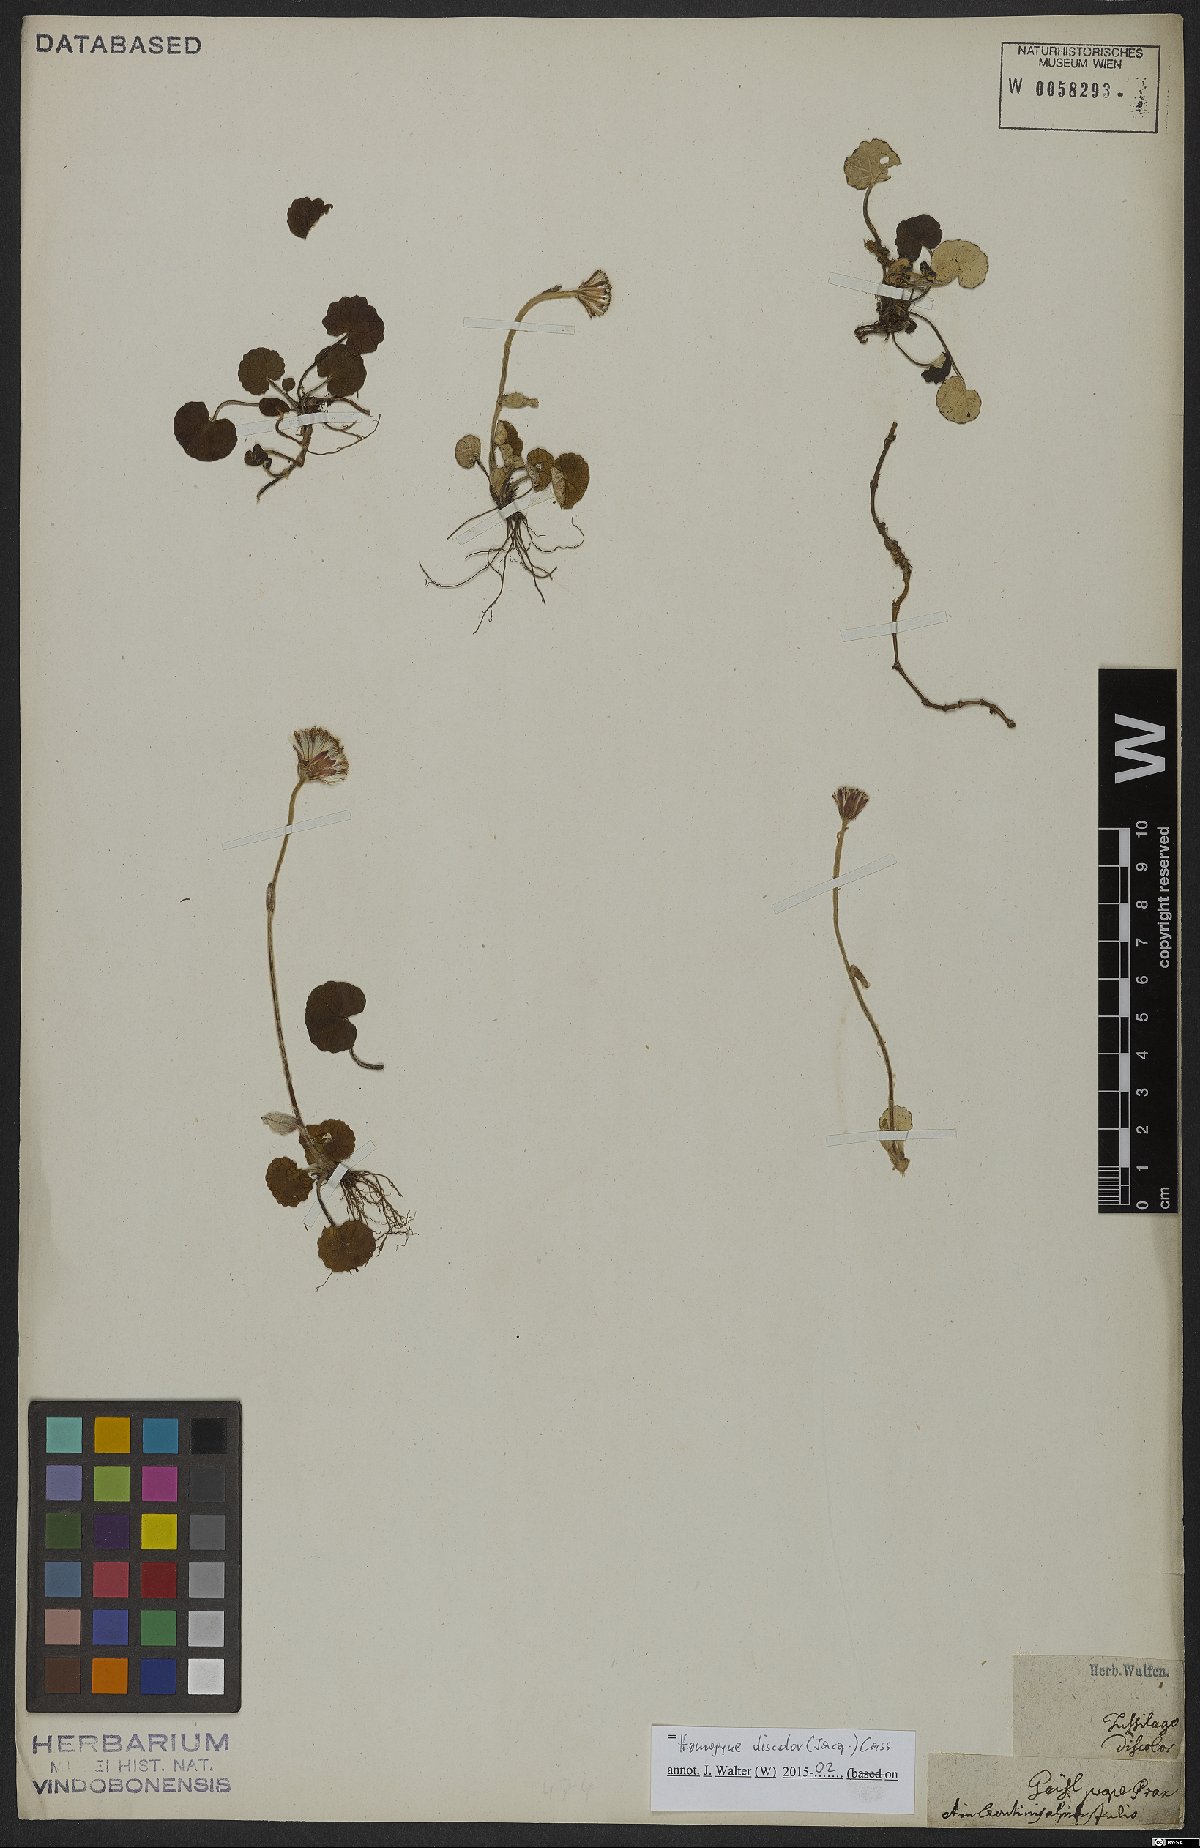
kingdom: Plantae
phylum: Tracheophyta
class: Magnoliopsida
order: Asterales
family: Asteraceae
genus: Homogyne
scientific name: Homogyne discolor
